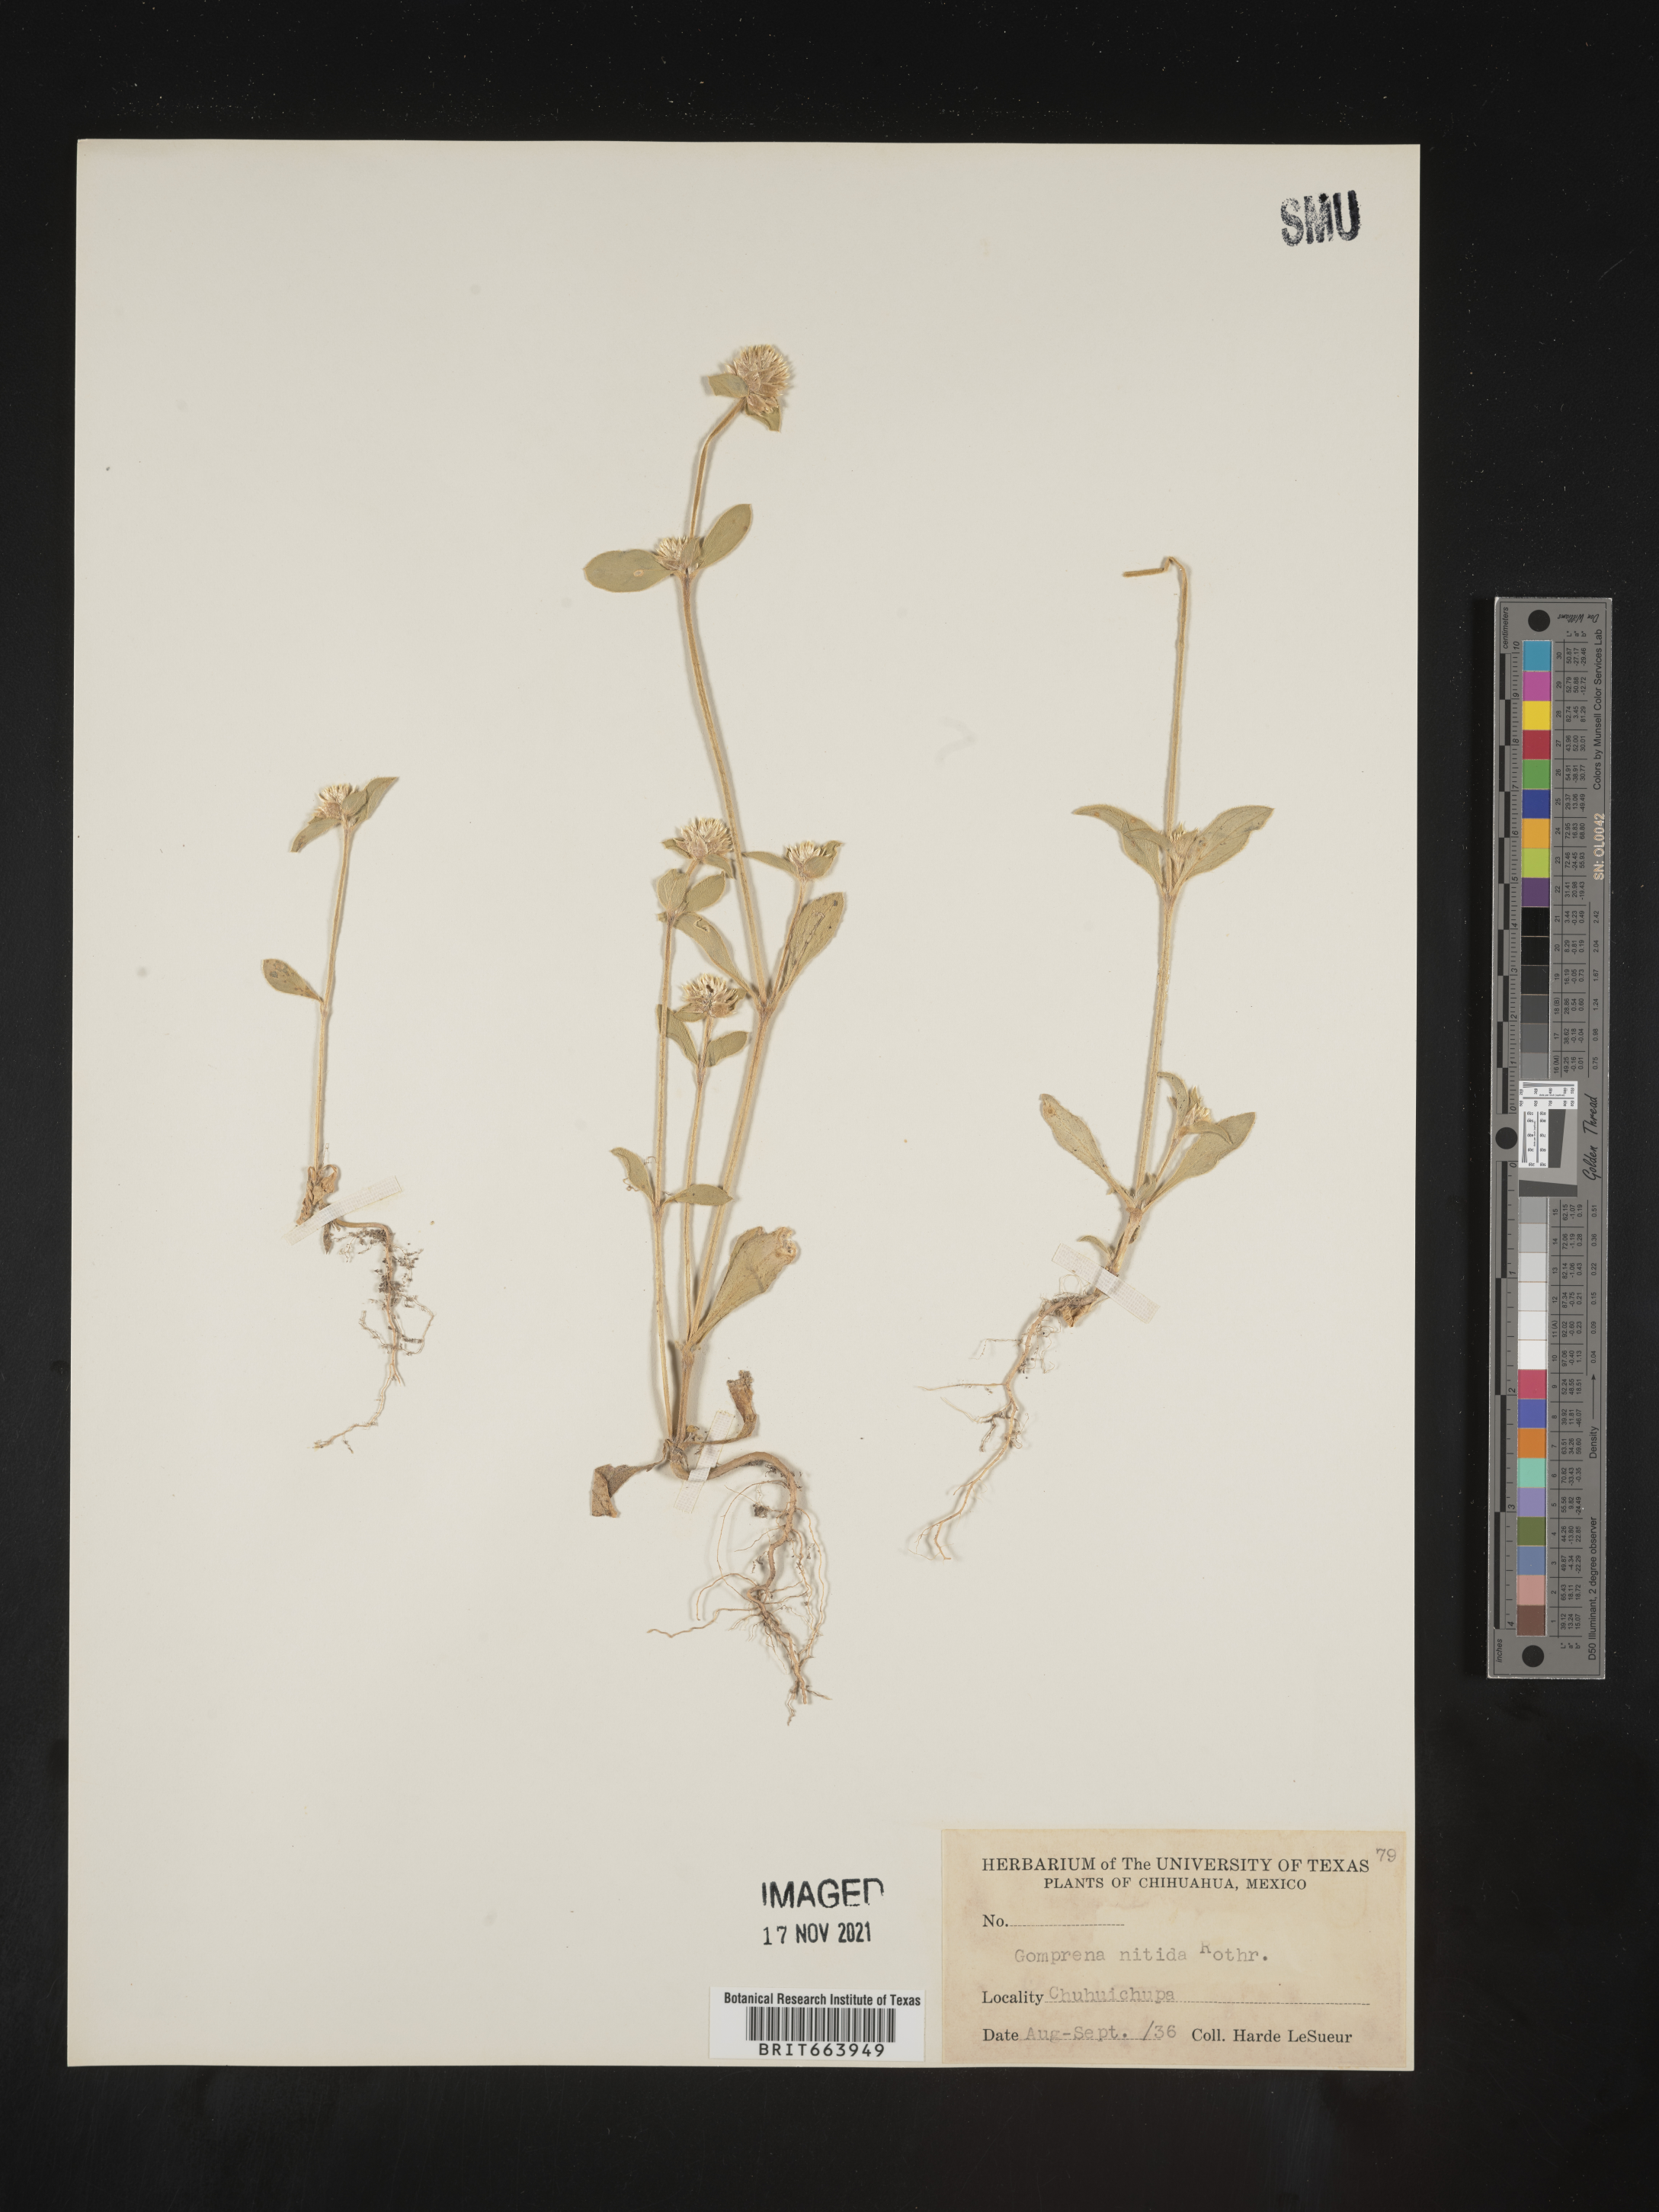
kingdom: Plantae
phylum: Tracheophyta
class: Magnoliopsida
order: Caryophyllales
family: Amaranthaceae
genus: Gomphrena
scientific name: Gomphrena
